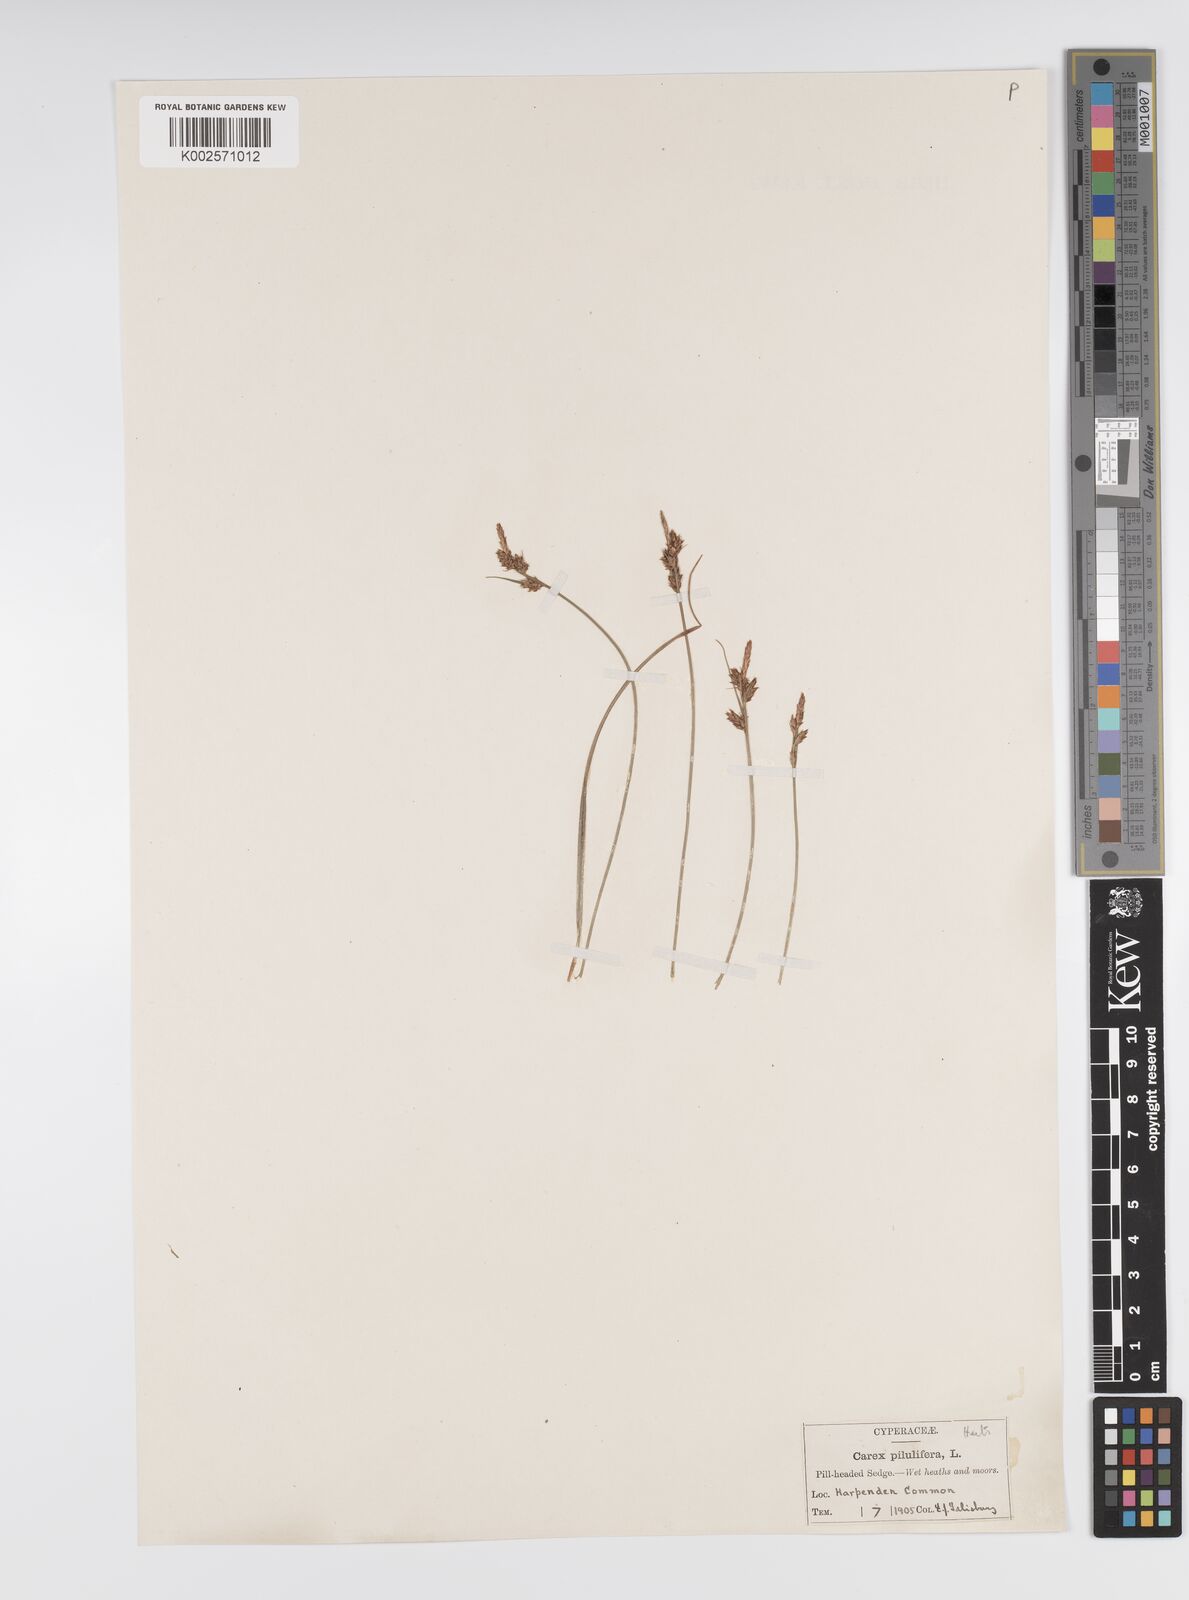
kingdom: Plantae
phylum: Tracheophyta
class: Liliopsida
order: Poales
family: Cyperaceae
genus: Carex
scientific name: Carex praecox
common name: Early sedge
